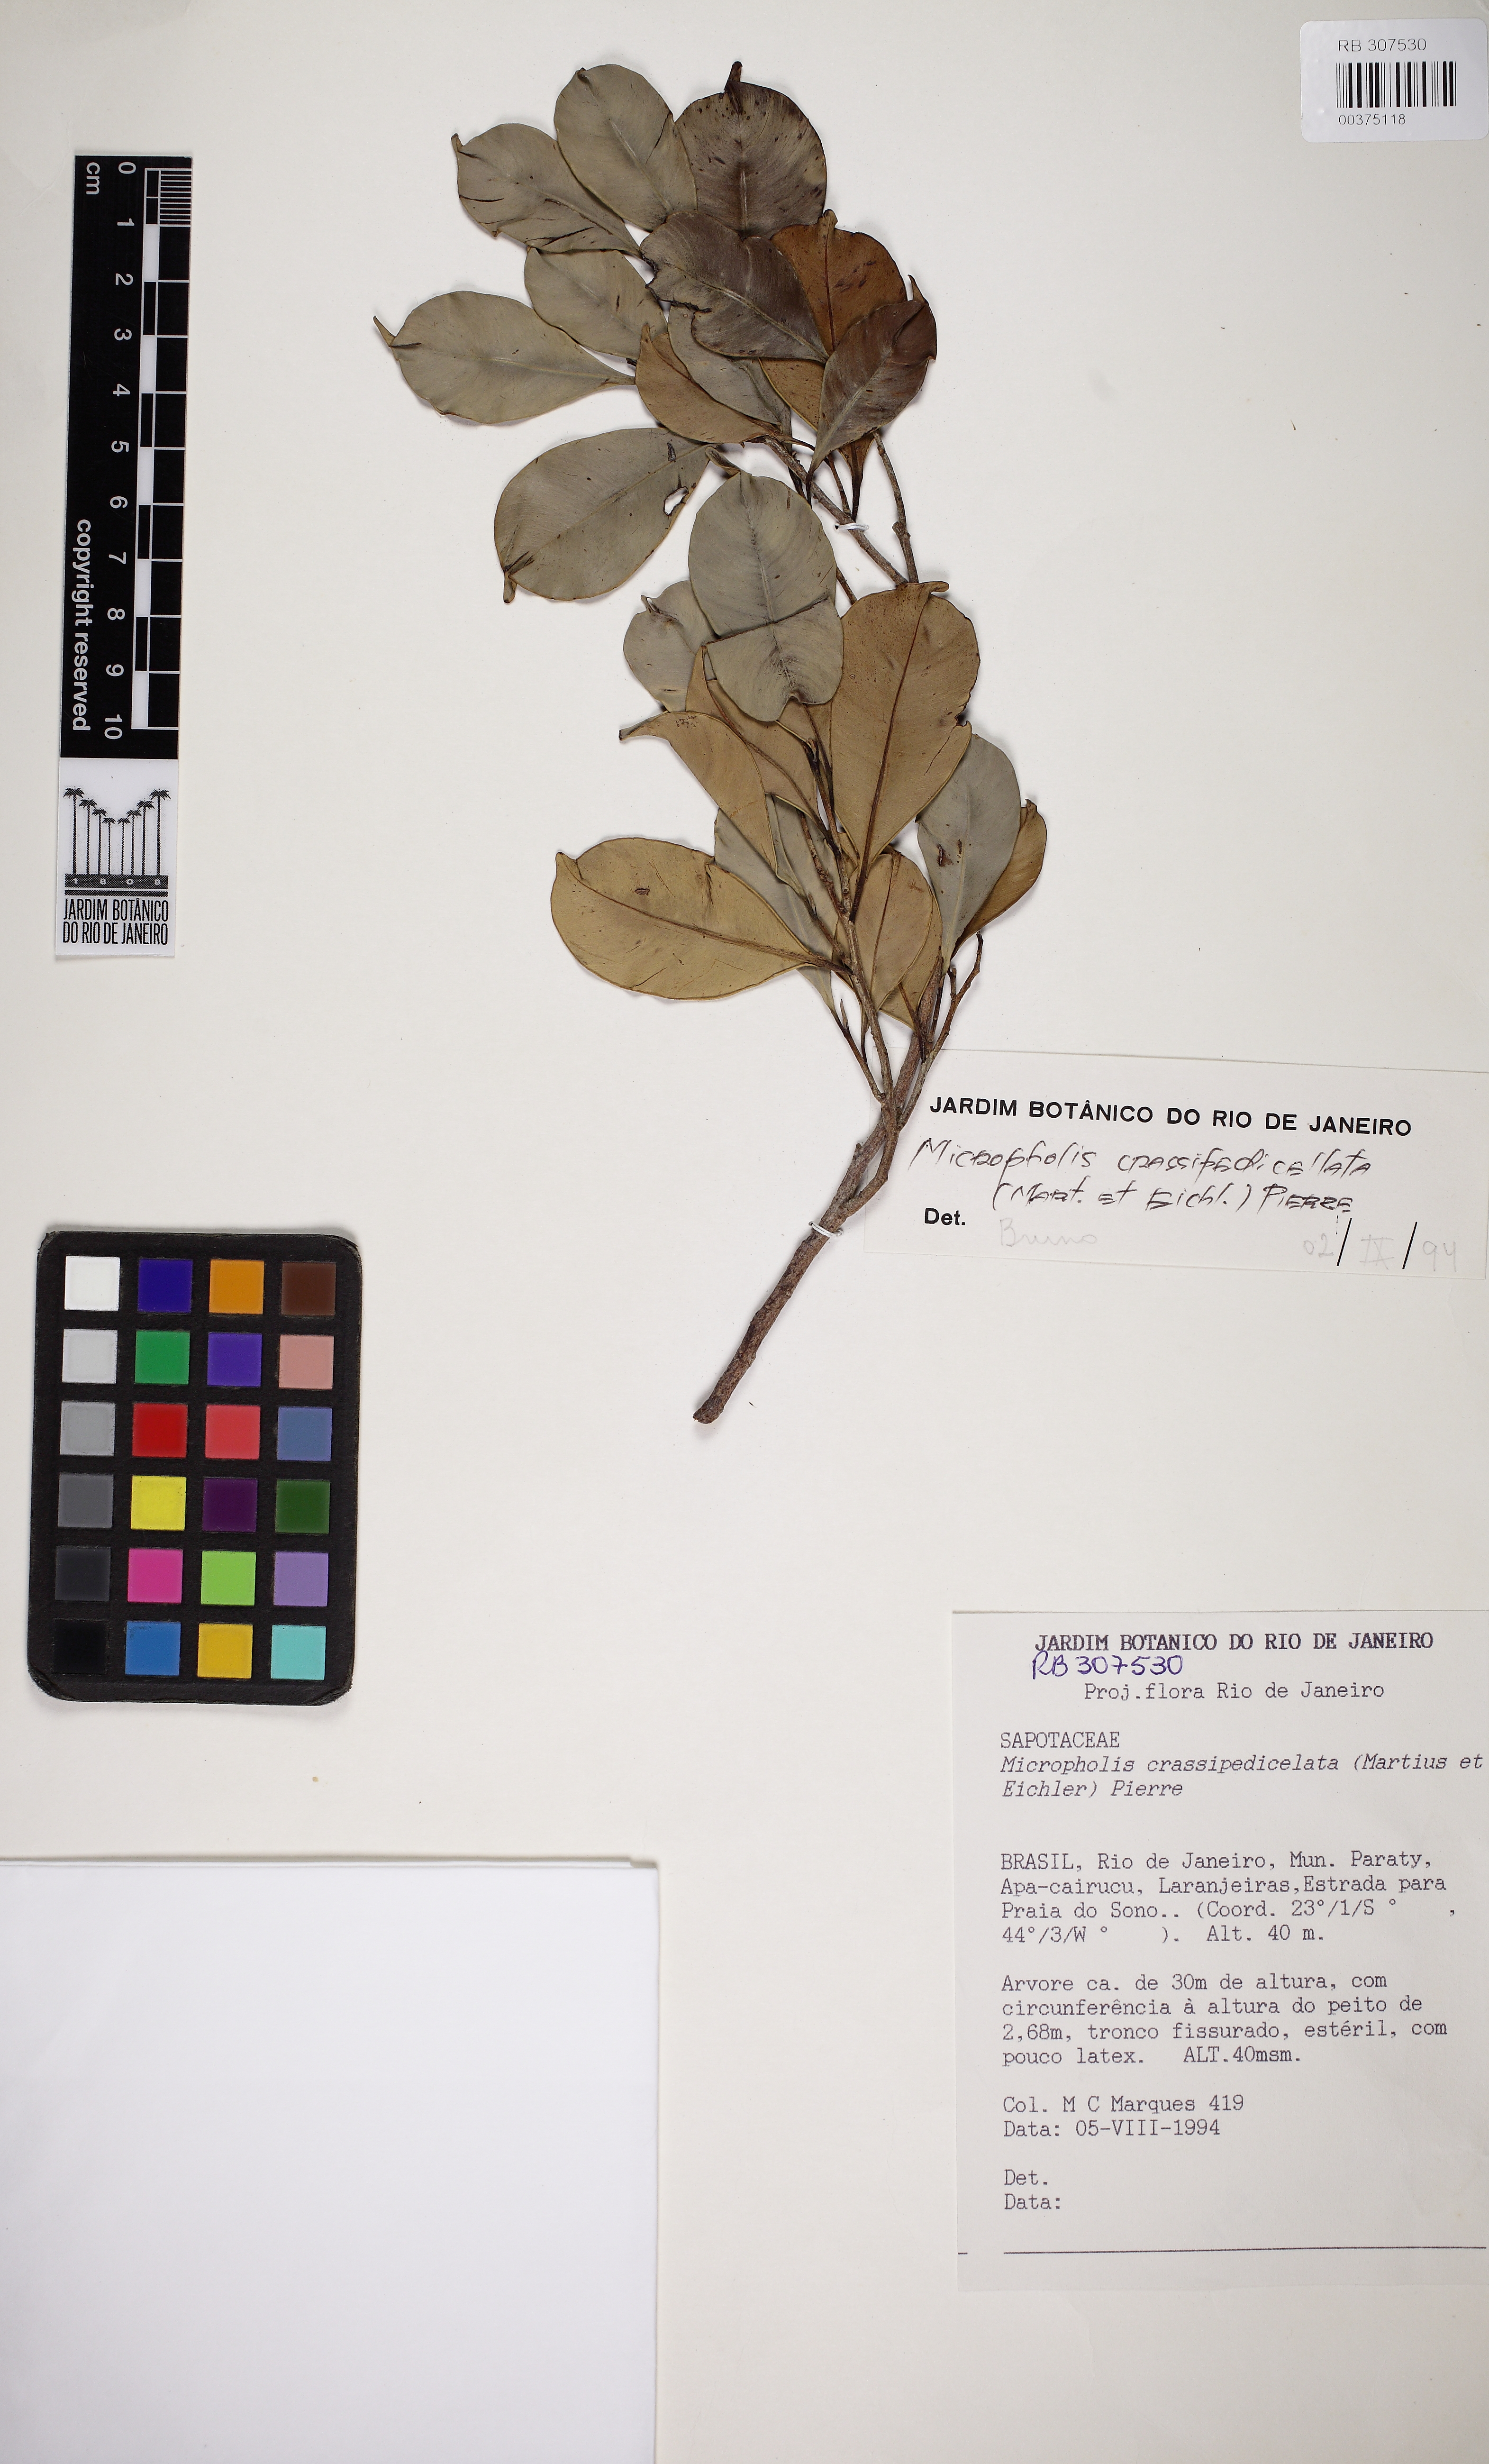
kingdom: Plantae
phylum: Tracheophyta
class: Magnoliopsida
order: Ericales
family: Sapotaceae
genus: Micropholis
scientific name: Micropholis crassipedicellata
